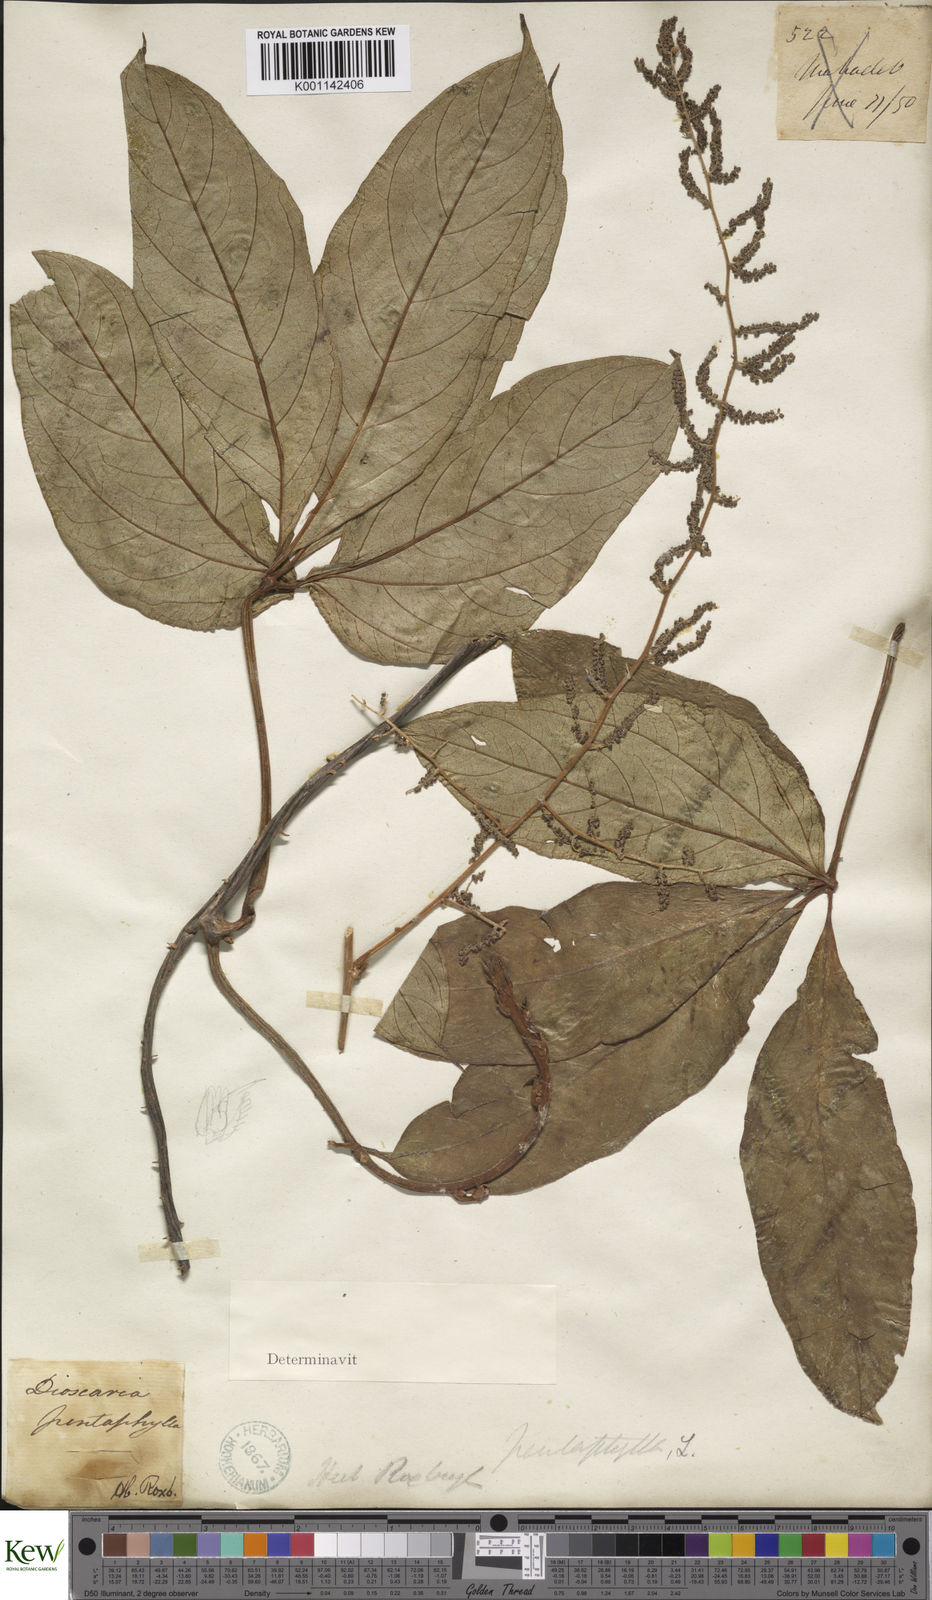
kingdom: Plantae
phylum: Tracheophyta
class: Liliopsida
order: Dioscoreales
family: Dioscoreaceae
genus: Dioscorea
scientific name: Dioscorea pentaphylla
